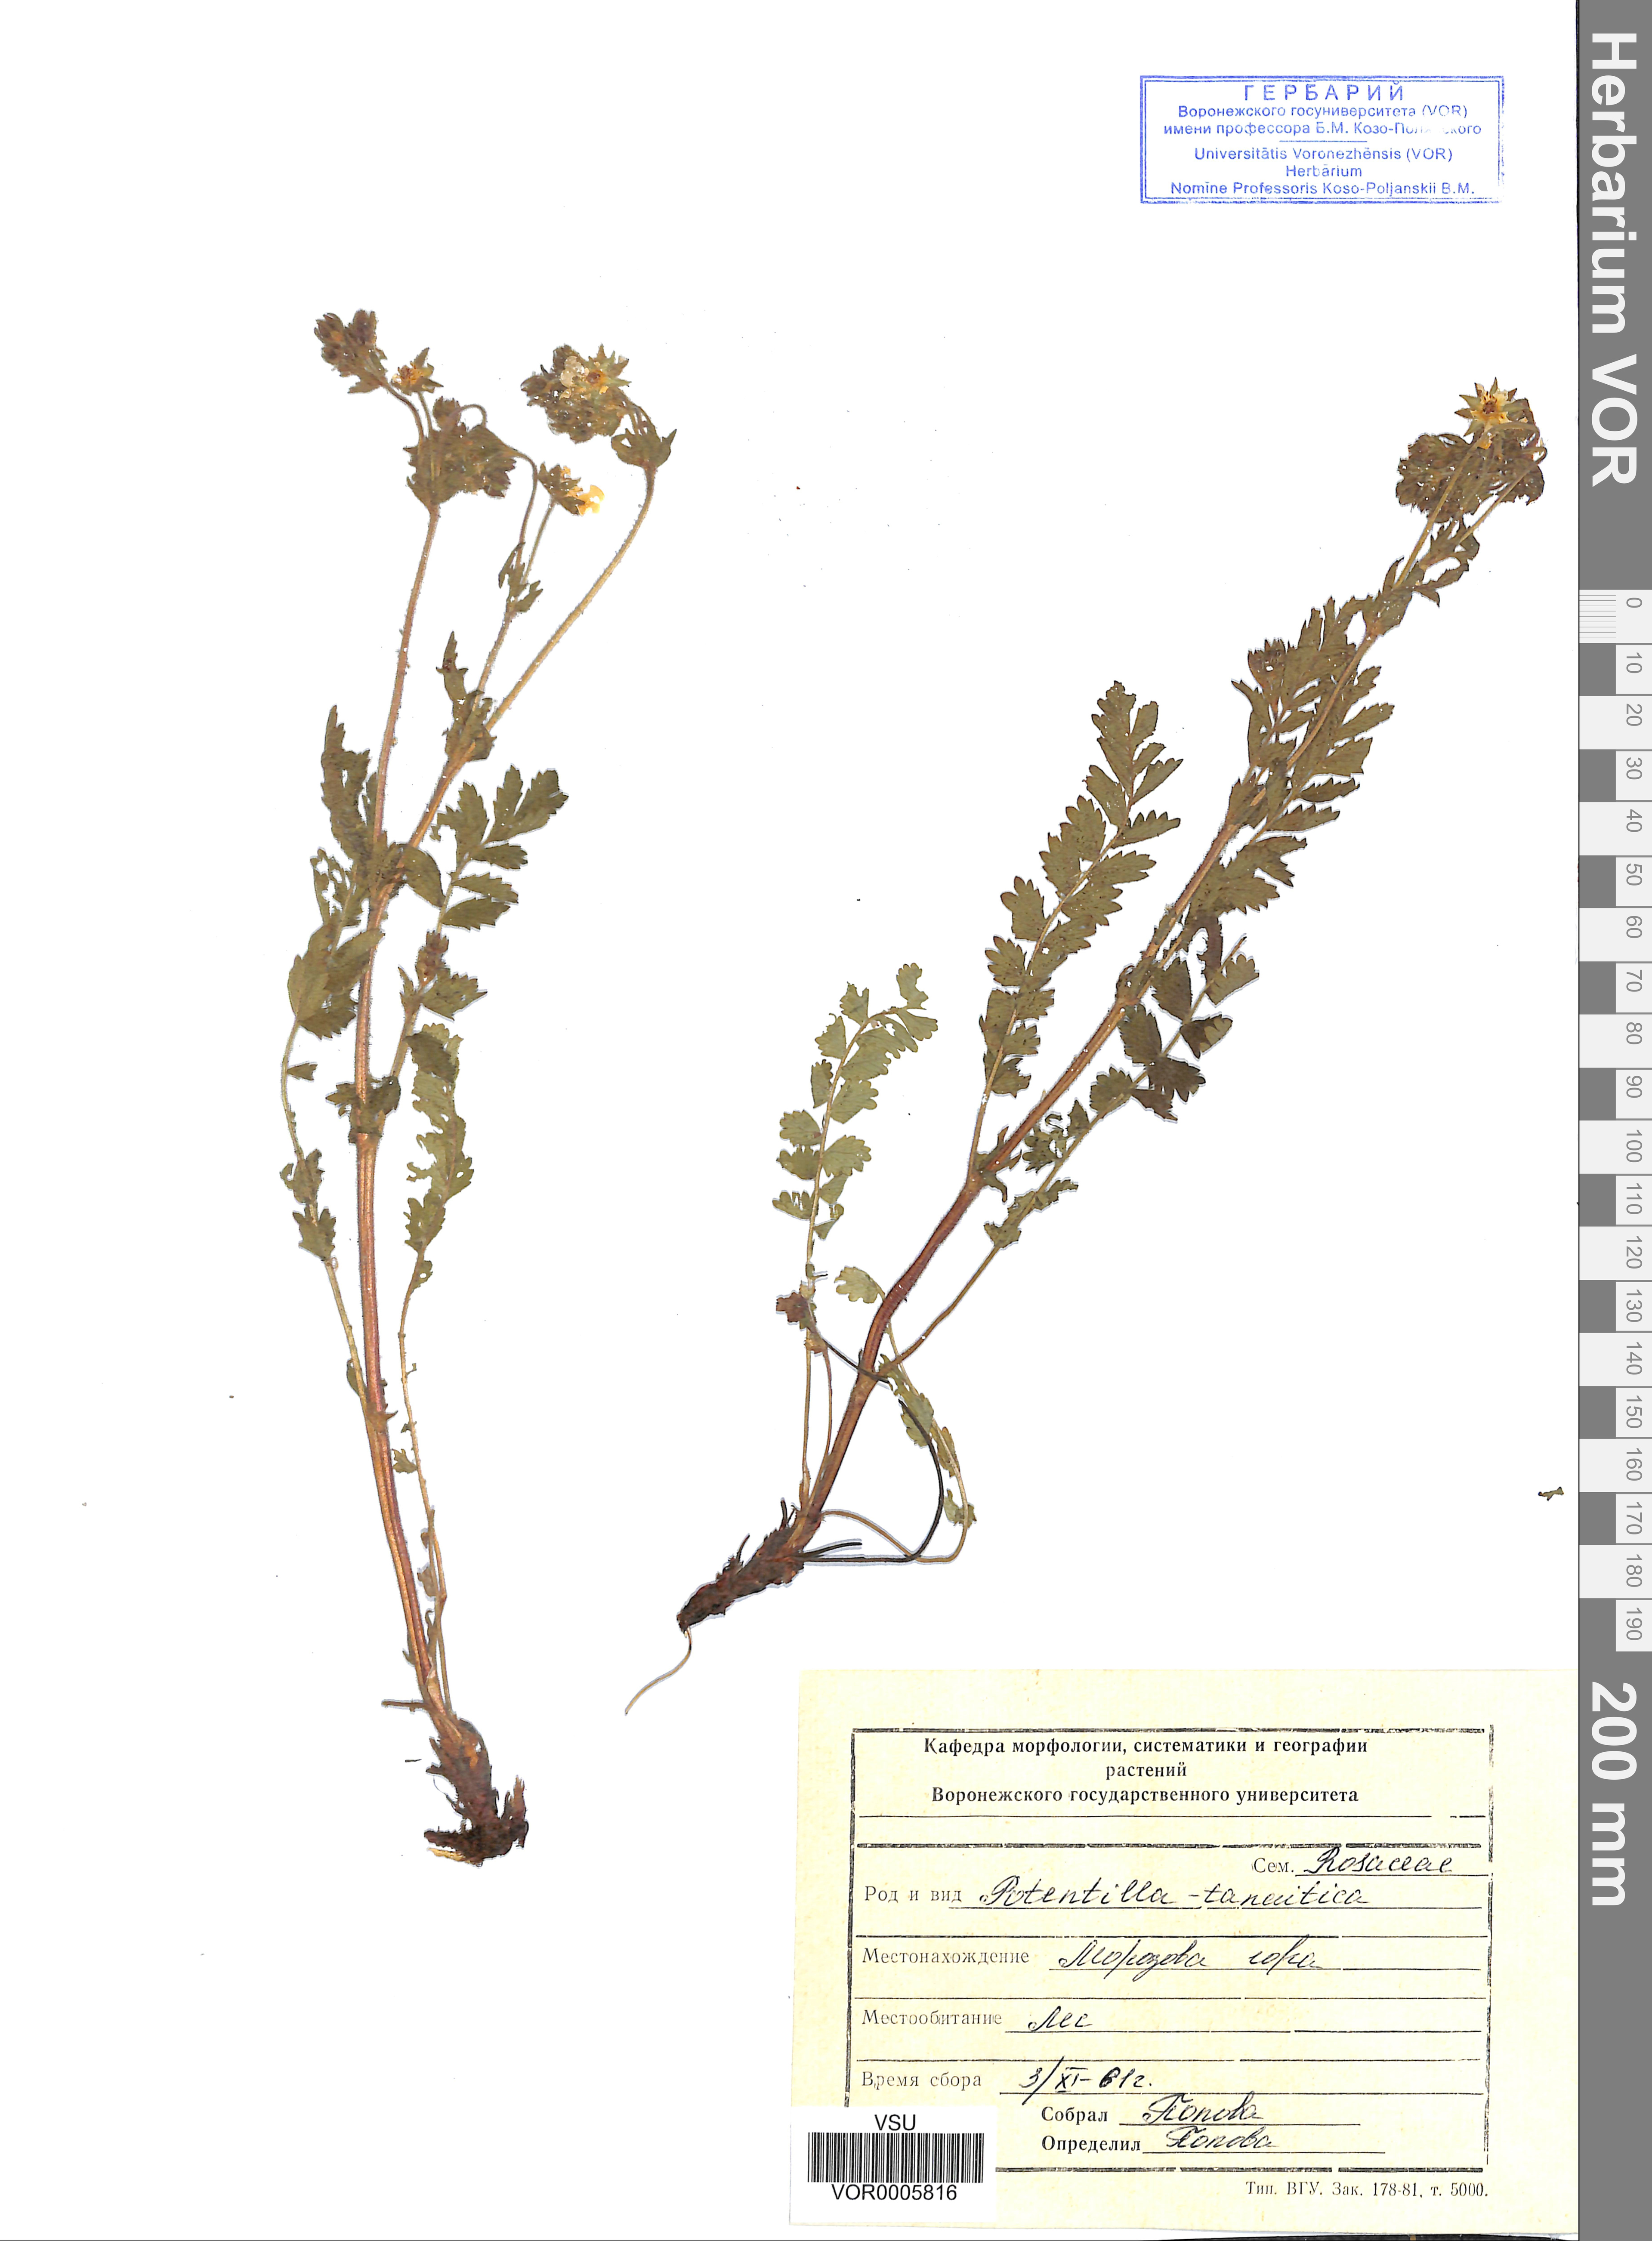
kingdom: Plantae
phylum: Tracheophyta
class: Magnoliopsida
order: Rosales
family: Rosaceae
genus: Potentilla
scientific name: Potentilla tanaitica
